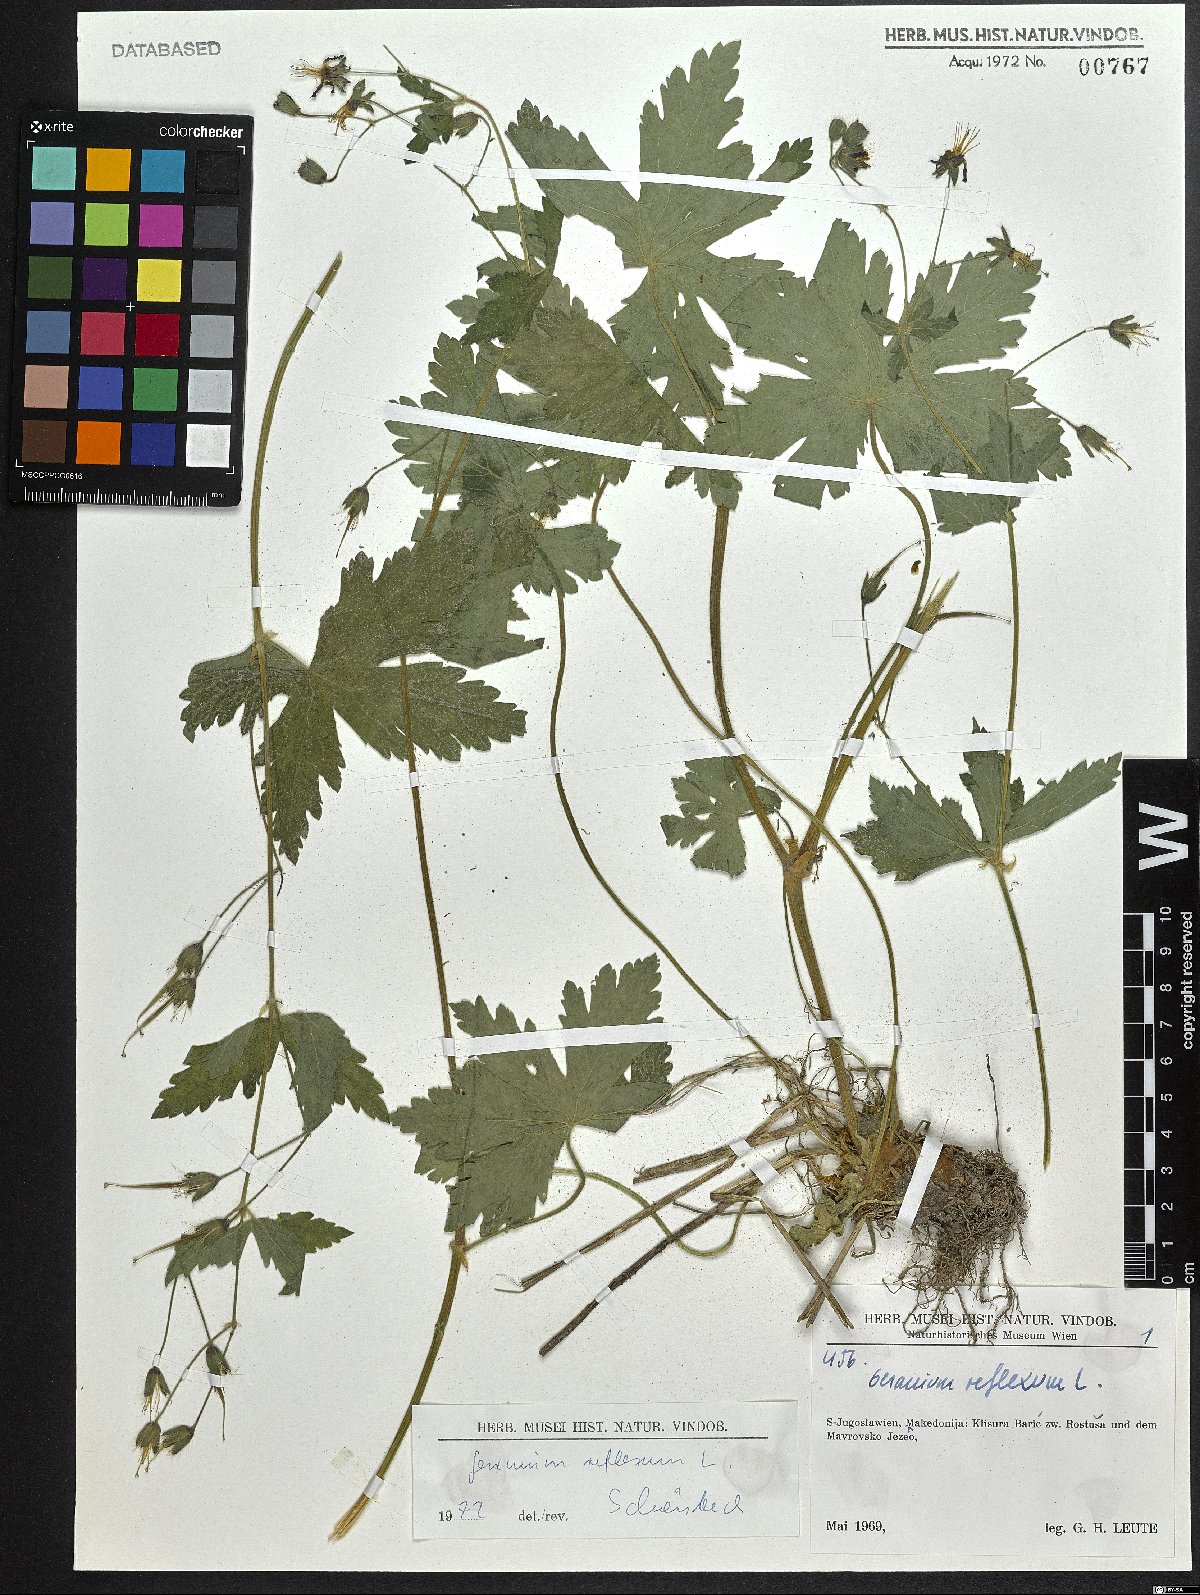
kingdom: Plantae
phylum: Tracheophyta
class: Magnoliopsida
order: Geraniales
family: Geraniaceae
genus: Geranium
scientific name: Geranium reflexum
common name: Reflexed crane's-bill
